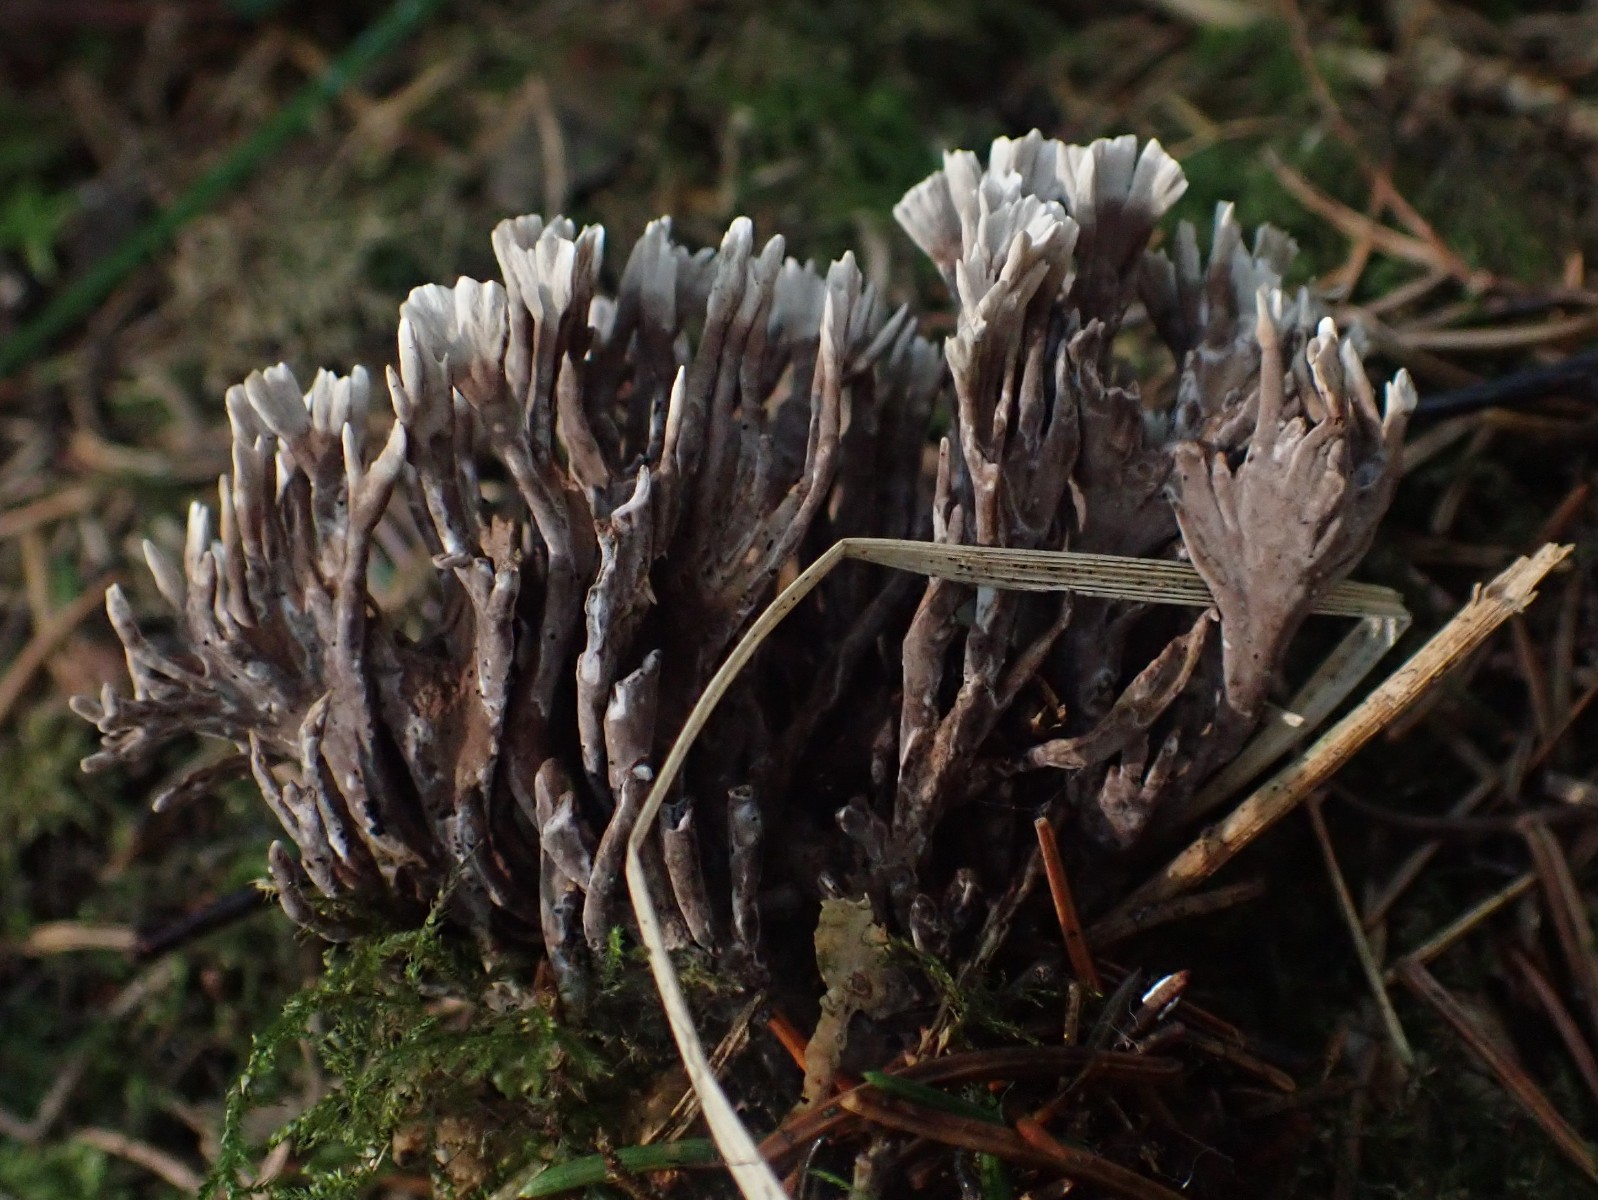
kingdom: Fungi
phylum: Basidiomycota
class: Agaricomycetes
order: Thelephorales
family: Thelephoraceae
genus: Thelephora
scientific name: Thelephora palmata
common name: grenet frynsesvamp
